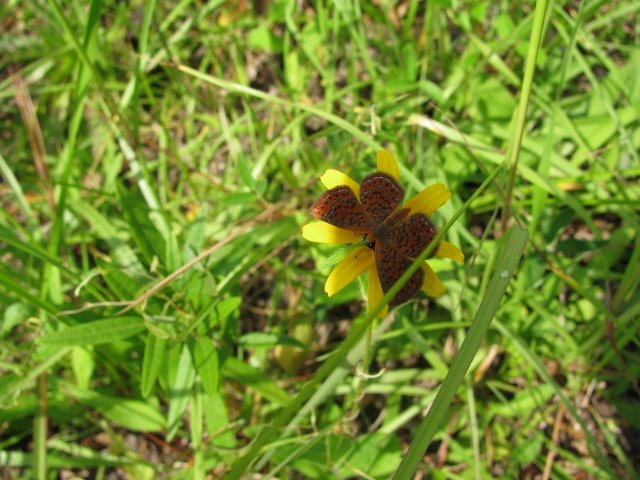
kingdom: Animalia
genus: Calephelis
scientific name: Calephelis virginiensis
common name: Little Metalmark
